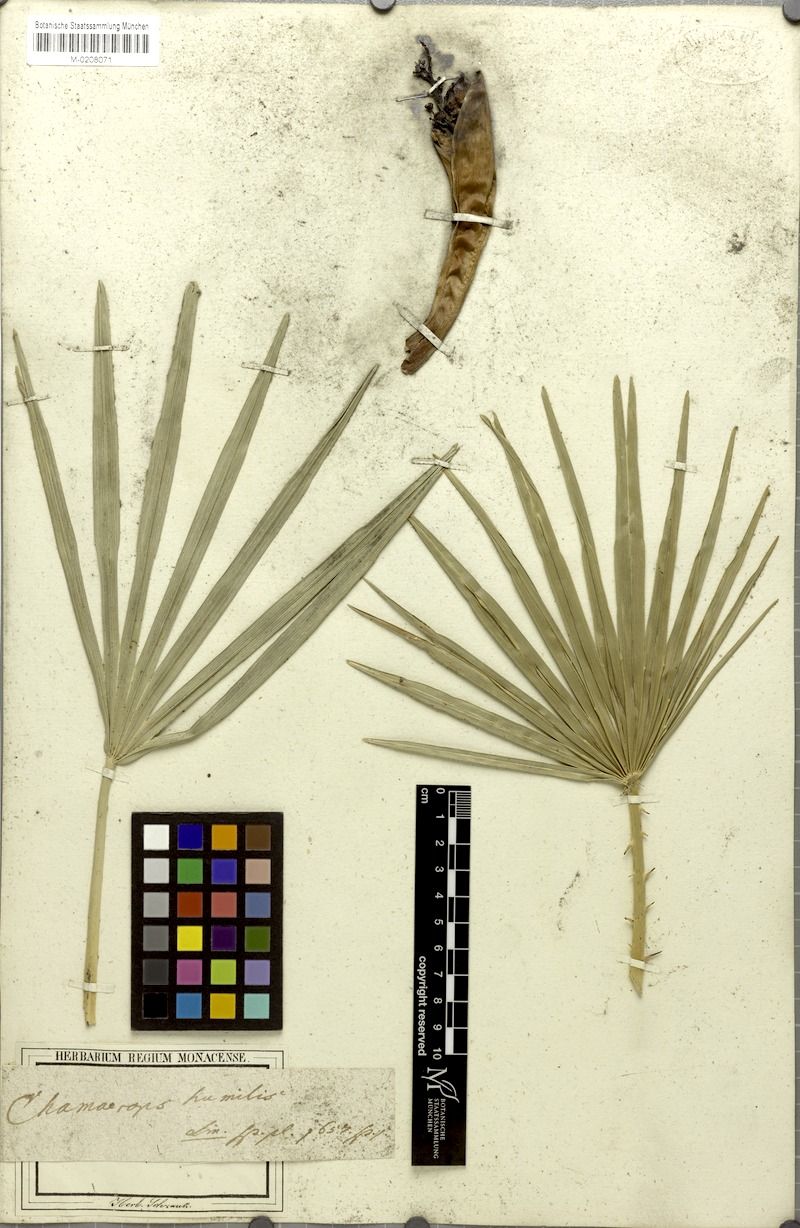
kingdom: Plantae
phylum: Tracheophyta
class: Liliopsida
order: Arecales
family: Arecaceae
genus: Chamaerops
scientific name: Chamaerops humilis
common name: Dwarf fan palm
